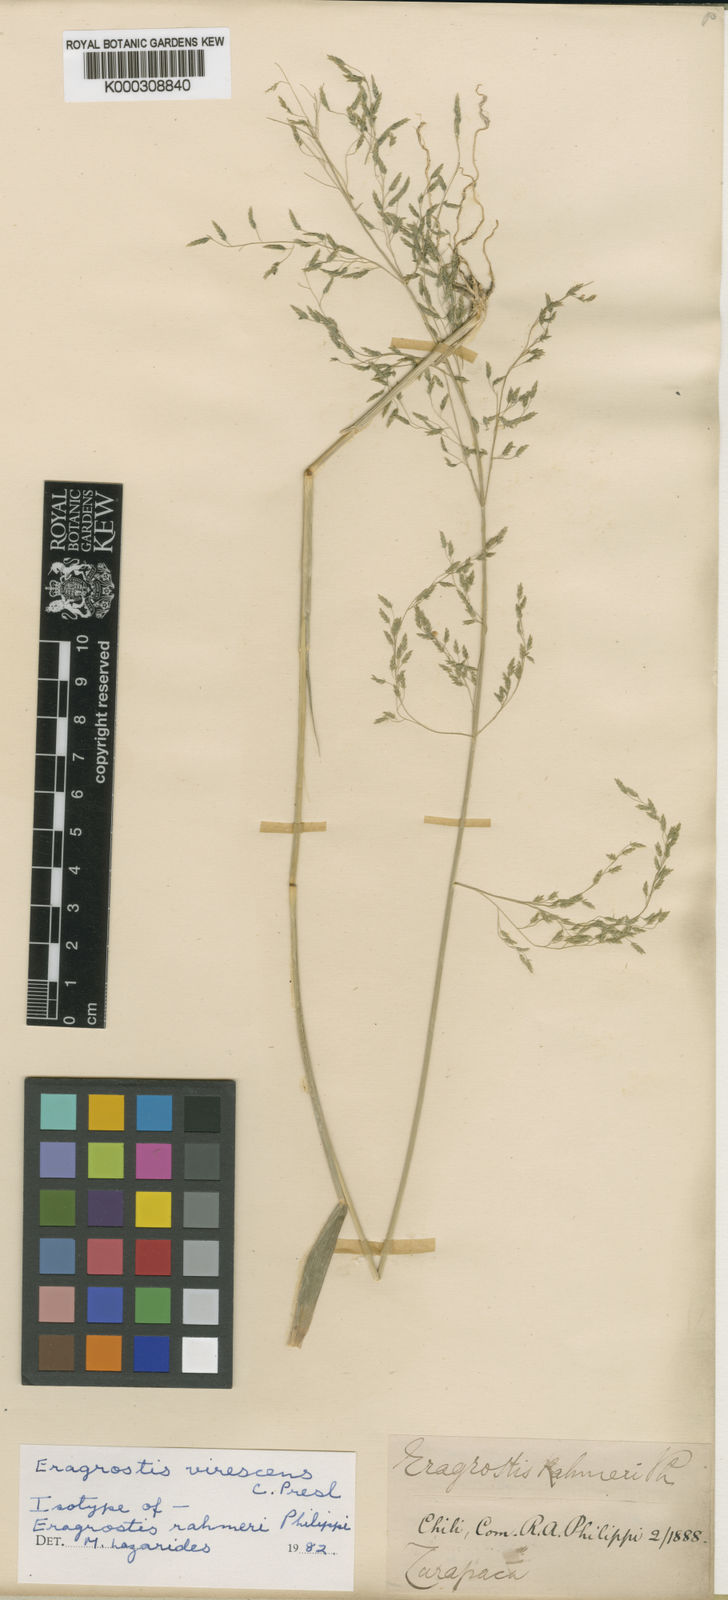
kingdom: Plantae
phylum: Tracheophyta
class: Liliopsida
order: Poales
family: Poaceae
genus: Eragrostis
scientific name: Eragrostis virescens
